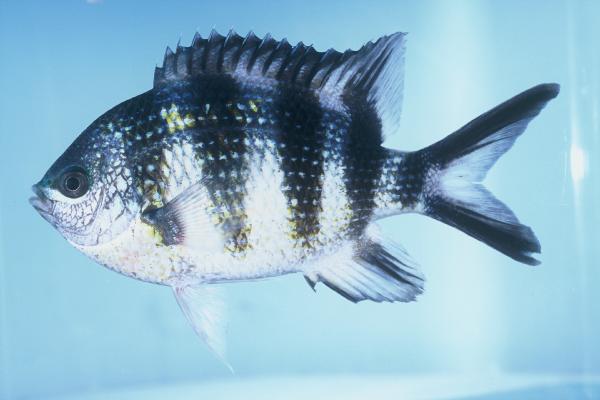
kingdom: Animalia
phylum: Chordata
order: Perciformes
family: Pomacentridae
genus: Abudefduf
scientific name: Abudefduf sexfasciatus
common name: Scissortail sergeant
